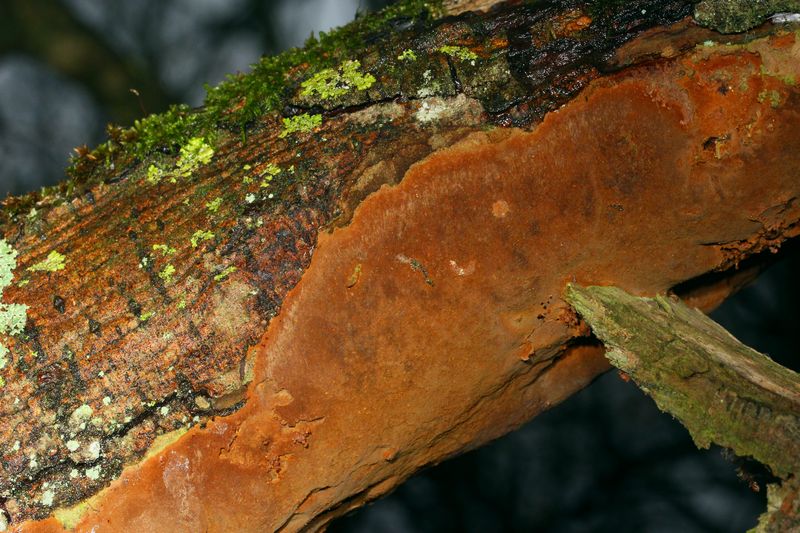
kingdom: Fungi
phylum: Basidiomycota
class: Agaricomycetes
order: Hymenochaetales
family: Hymenochaetaceae
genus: Fuscoporia
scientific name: Fuscoporia ferrea
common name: skorpe-ildporesvamp
